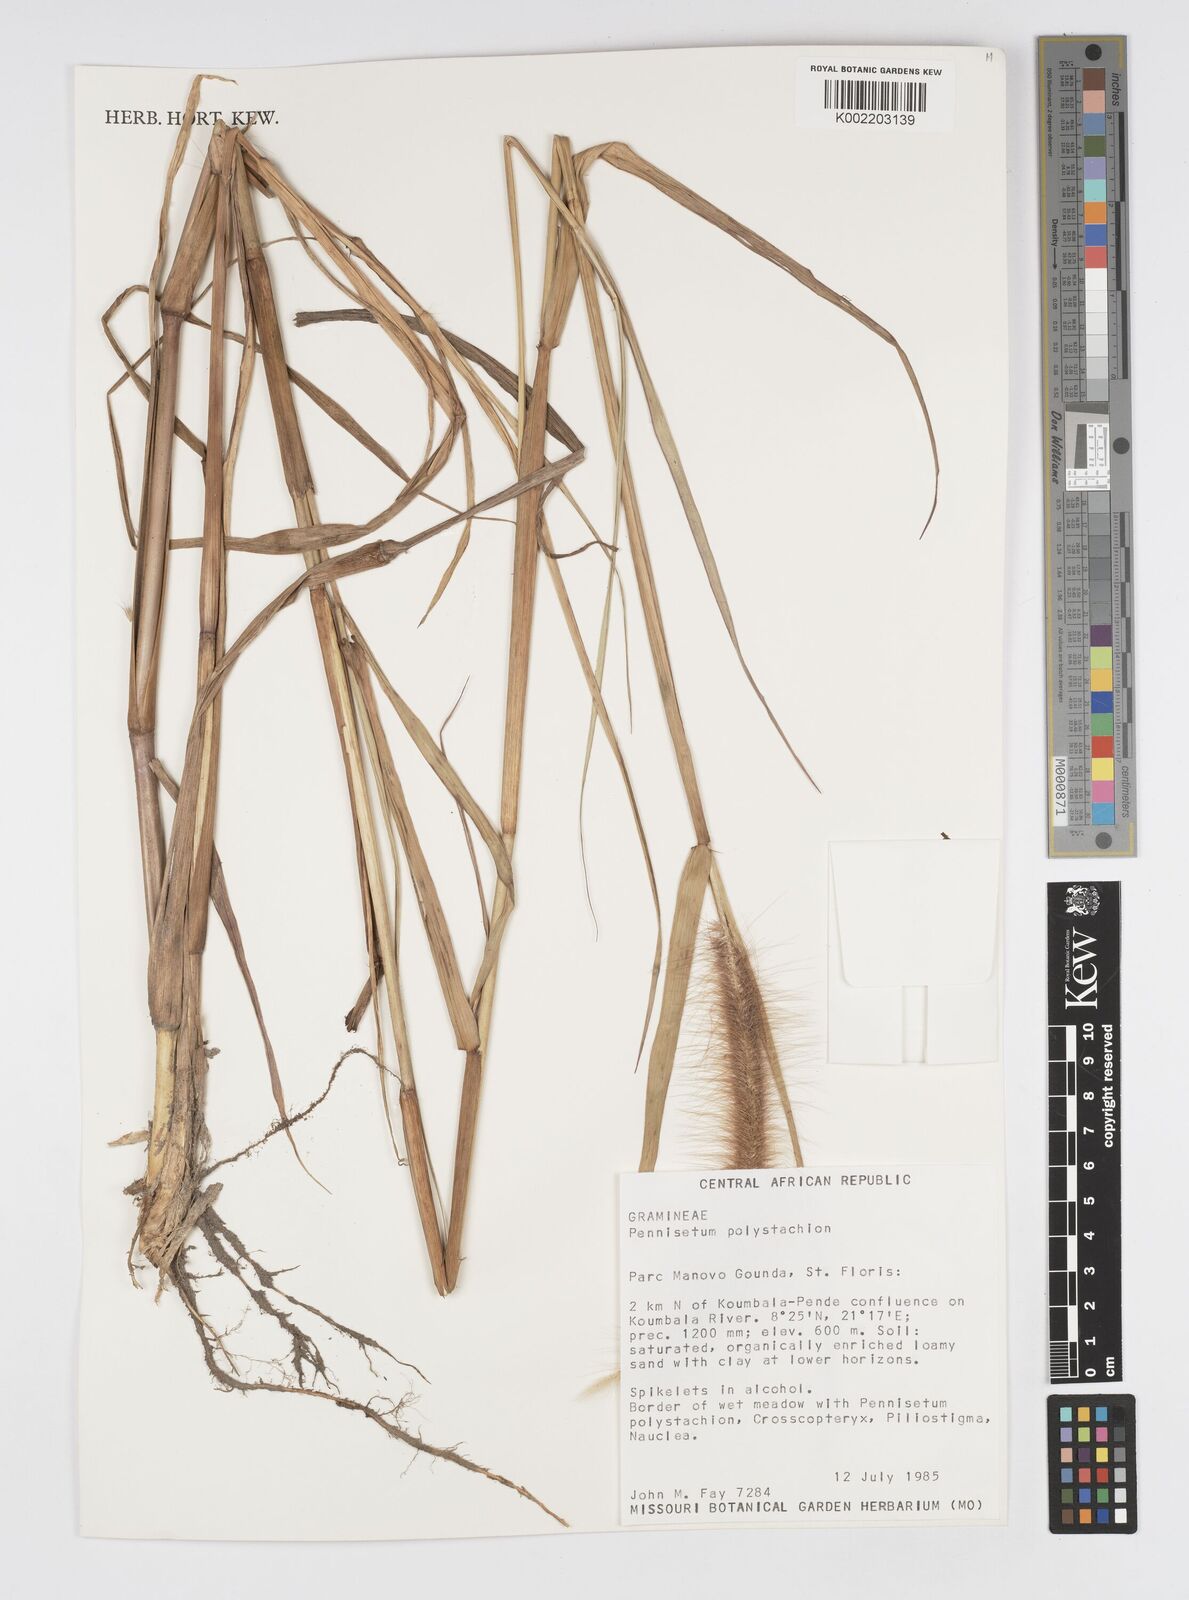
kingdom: Plantae
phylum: Tracheophyta
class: Liliopsida
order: Poales
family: Poaceae
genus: Setaria
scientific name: Setaria parviflora
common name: Knotroot bristle-grass
